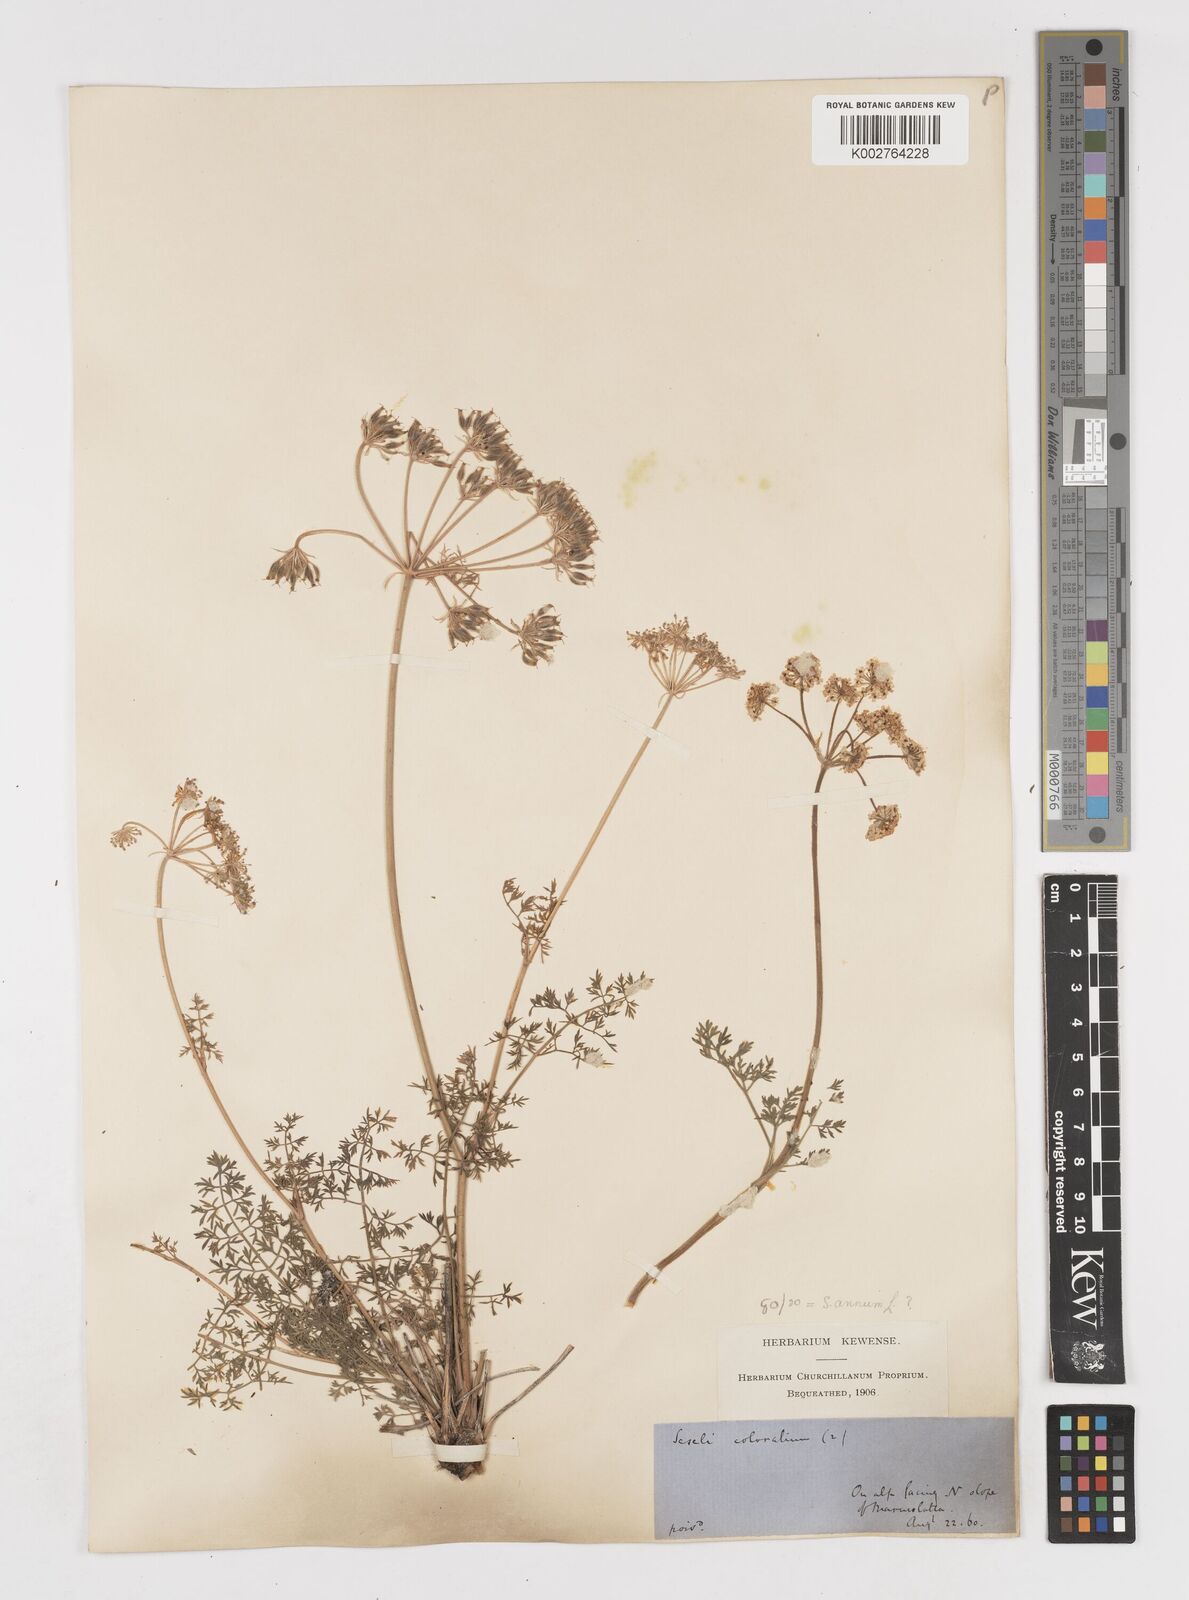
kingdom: Plantae
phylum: Tracheophyta
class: Magnoliopsida
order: Apiales
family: Apiaceae
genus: Athamanta
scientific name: Athamanta cretensis
